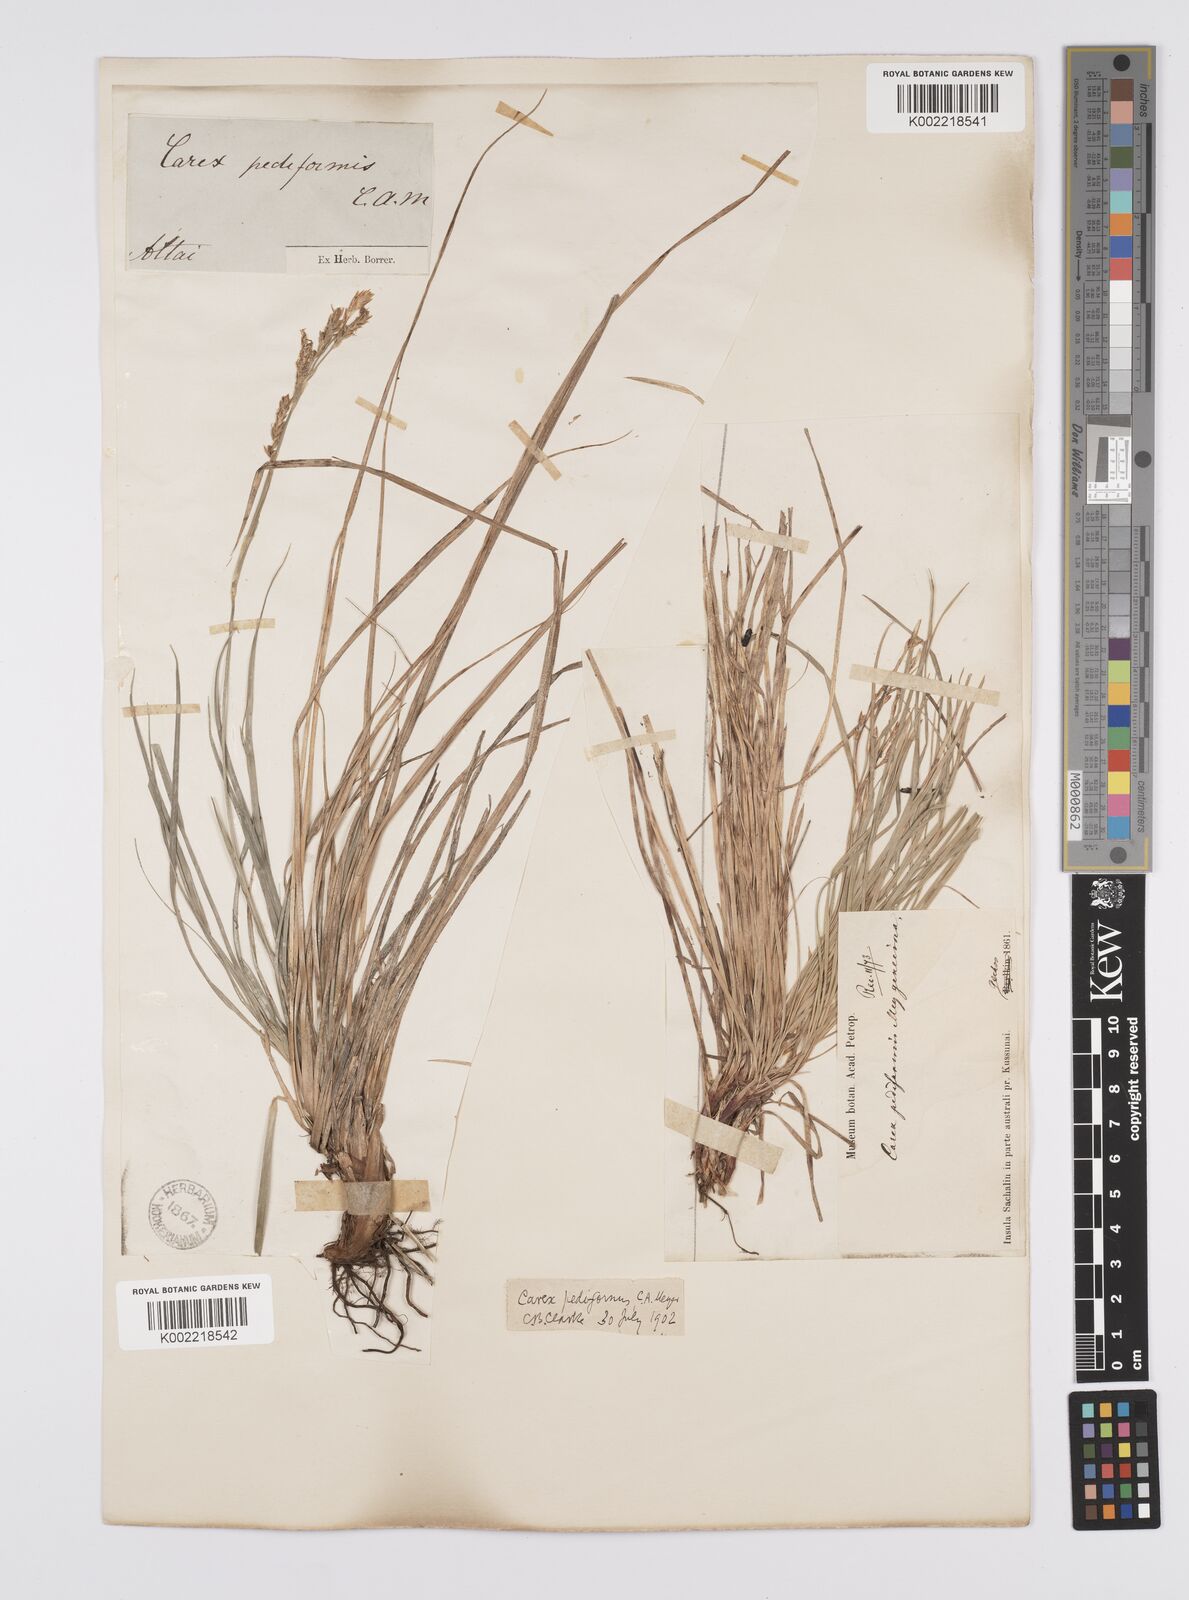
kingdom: Plantae
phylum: Tracheophyta
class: Liliopsida
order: Poales
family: Cyperaceae
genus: Carex
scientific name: Carex pediformis
